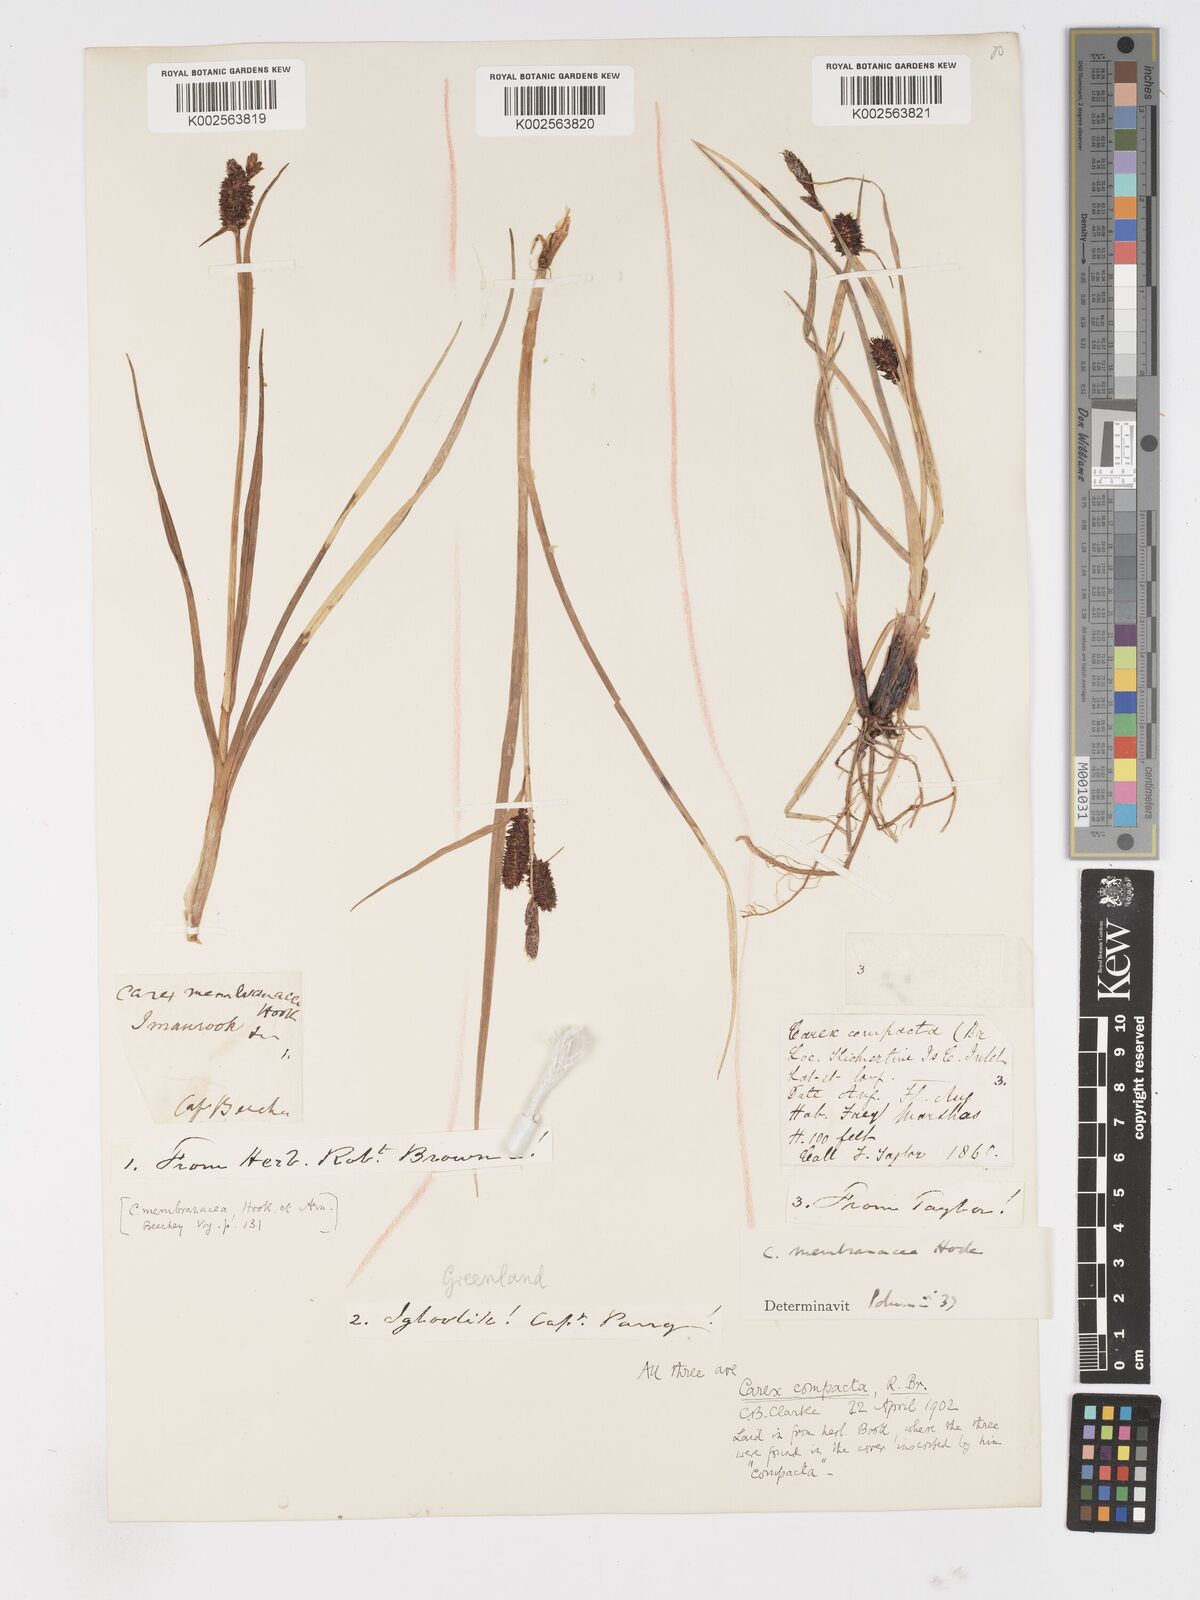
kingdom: Plantae
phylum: Tracheophyta
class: Liliopsida
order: Poales
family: Cyperaceae
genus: Carex
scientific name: Carex membranacea
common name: Fragile sedge
